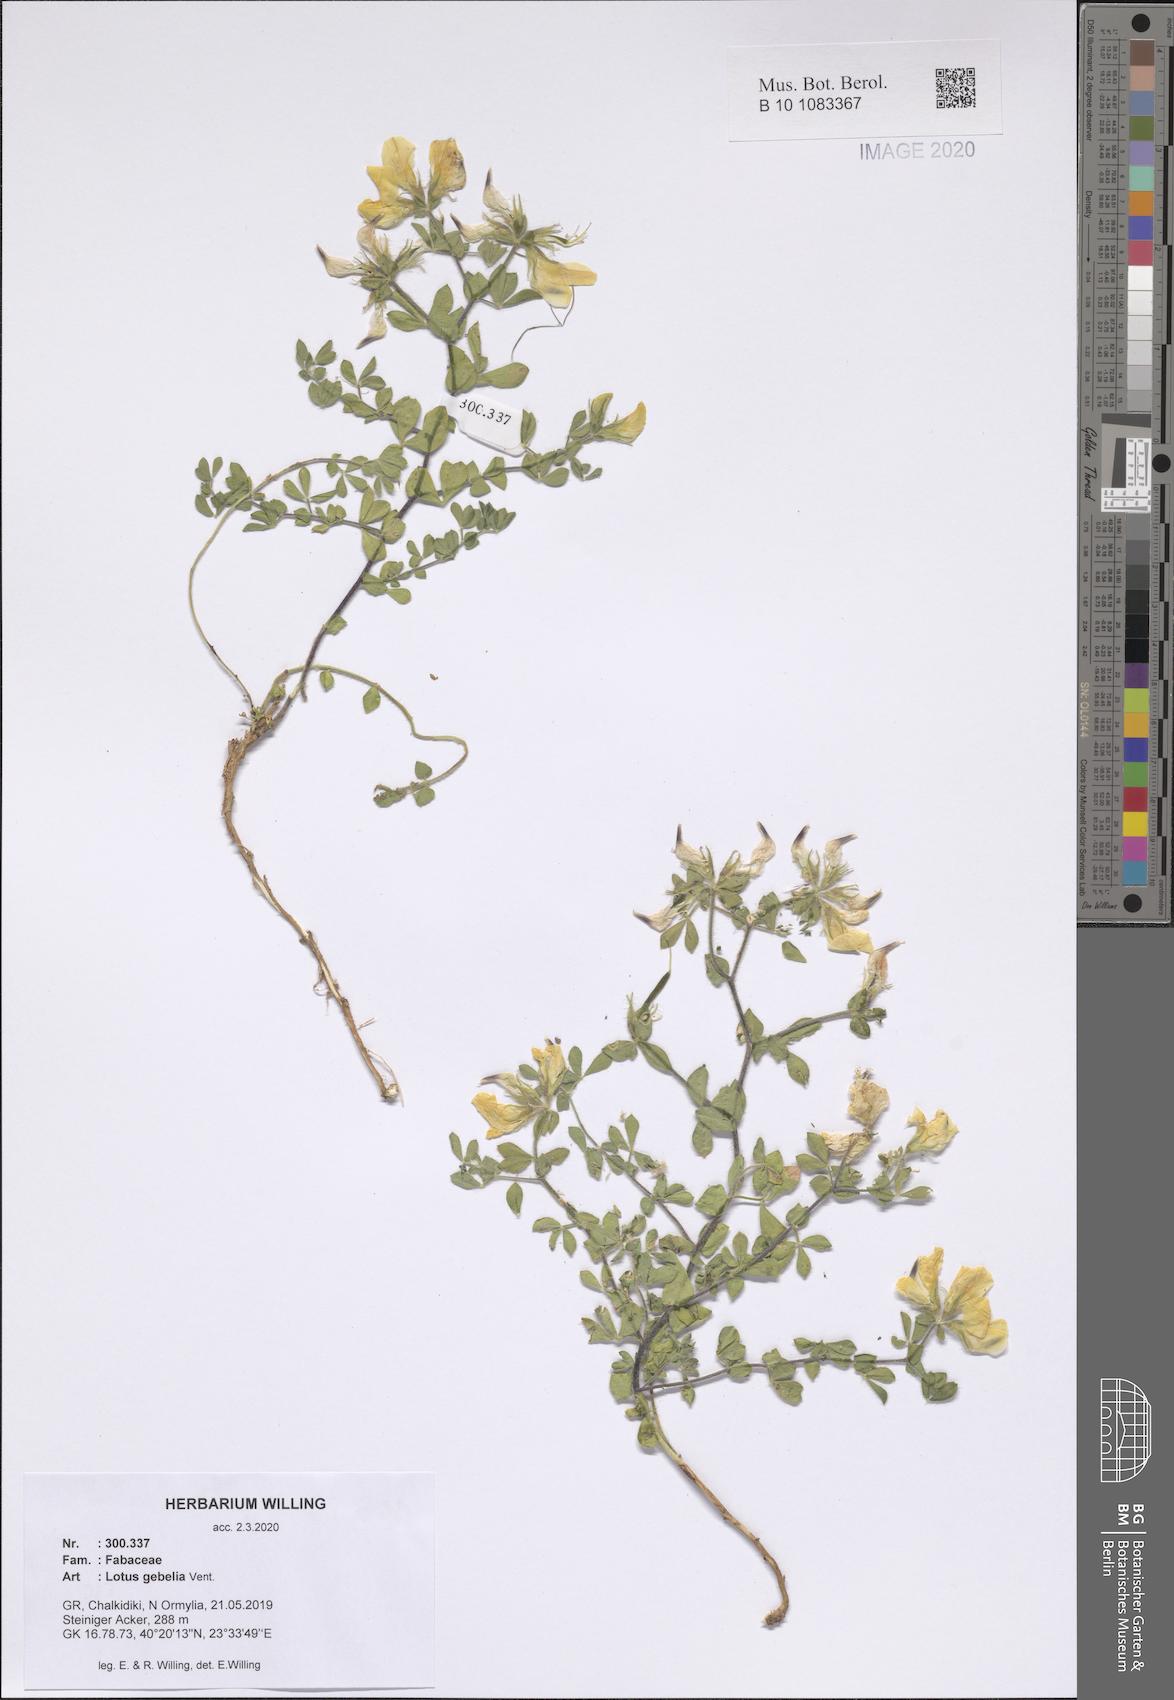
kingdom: Plantae
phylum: Tracheophyta
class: Magnoliopsida
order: Fabales
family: Fabaceae
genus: Lotus
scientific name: Lotus gebelia
